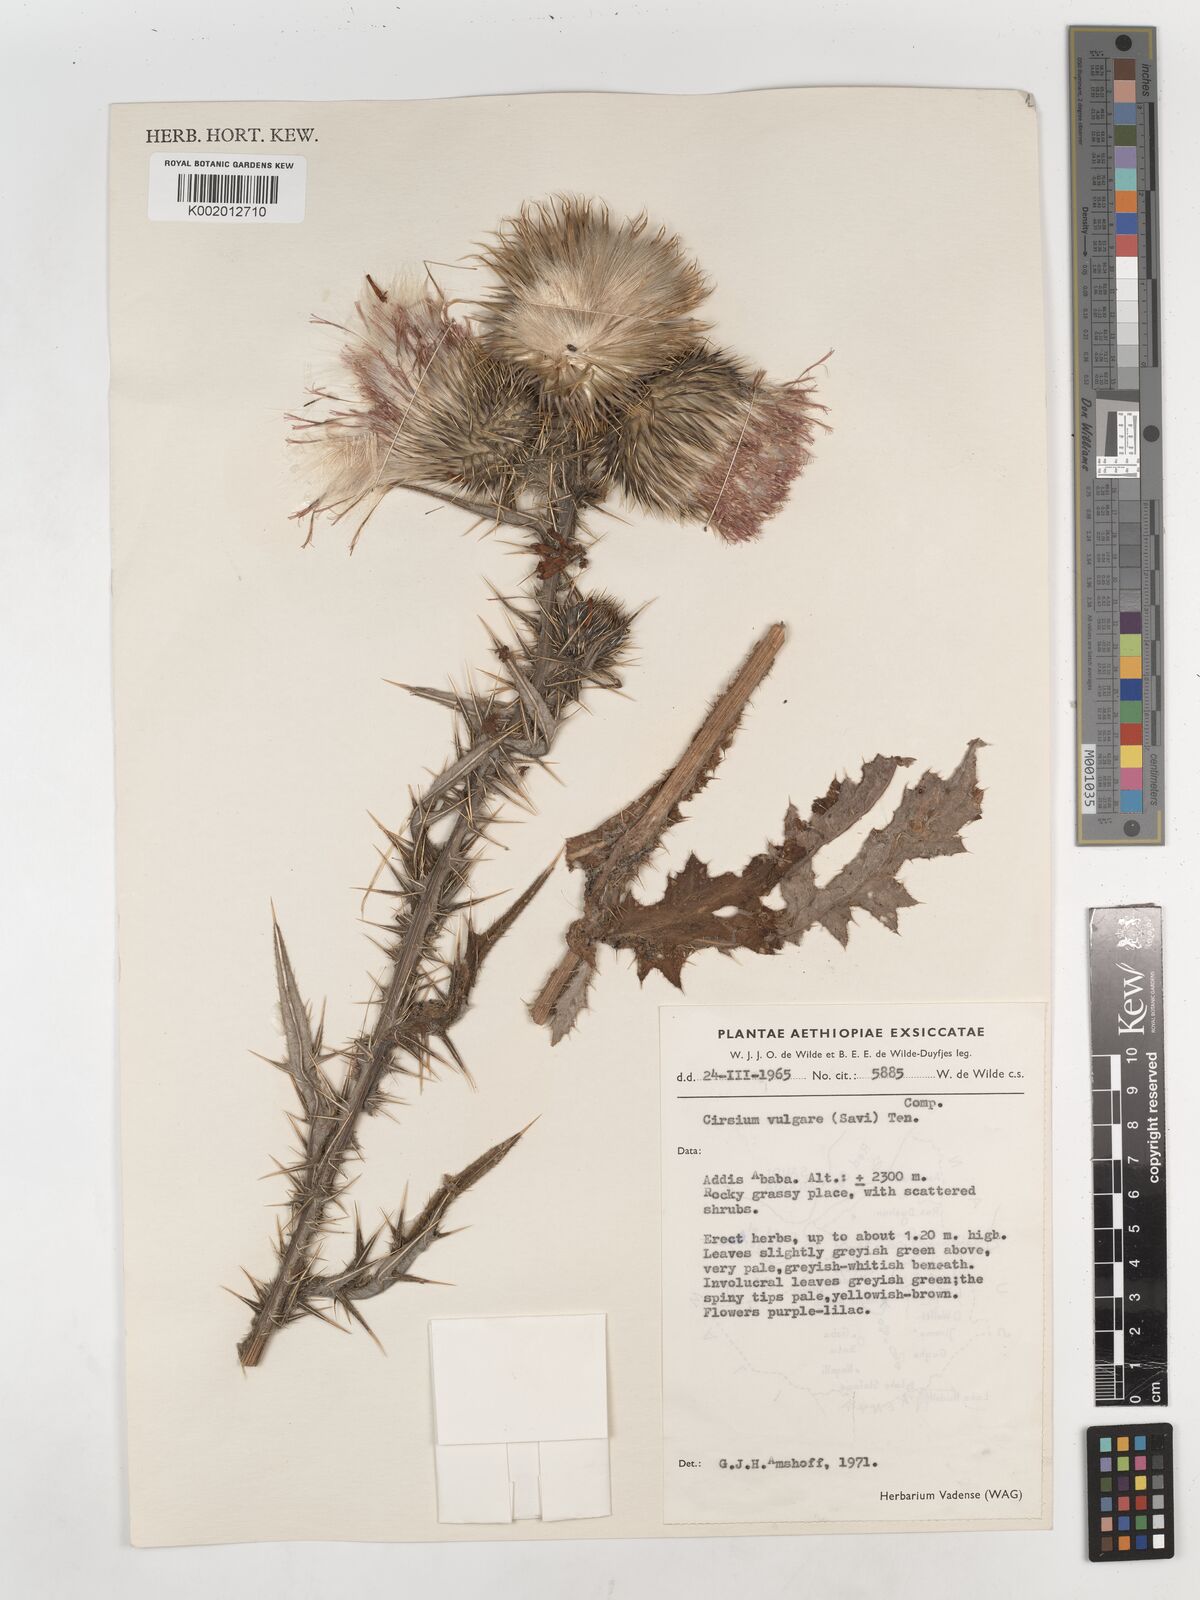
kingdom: Plantae
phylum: Tracheophyta
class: Magnoliopsida
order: Asterales
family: Asteraceae
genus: Cirsium
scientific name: Cirsium vulgare
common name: Bull thistle
